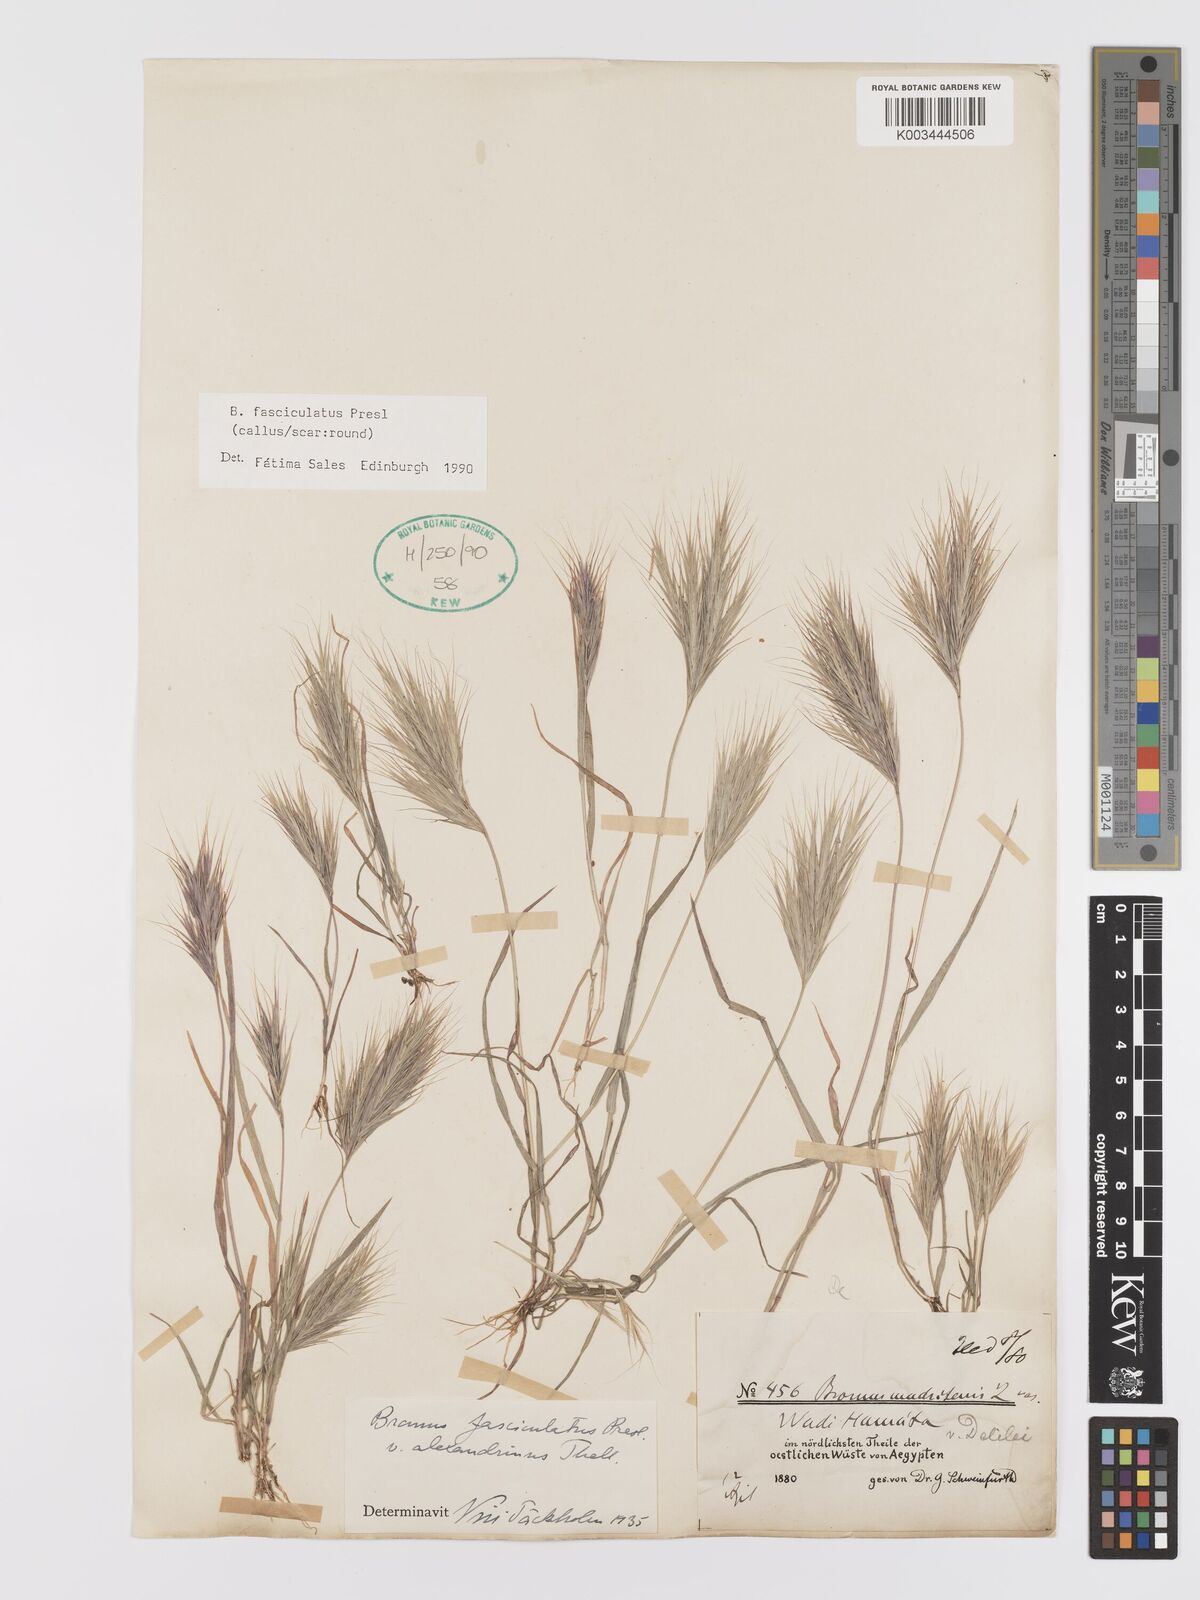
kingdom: Plantae
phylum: Tracheophyta
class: Liliopsida
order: Poales
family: Poaceae
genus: Bromus
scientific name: Bromus fasciculatus
